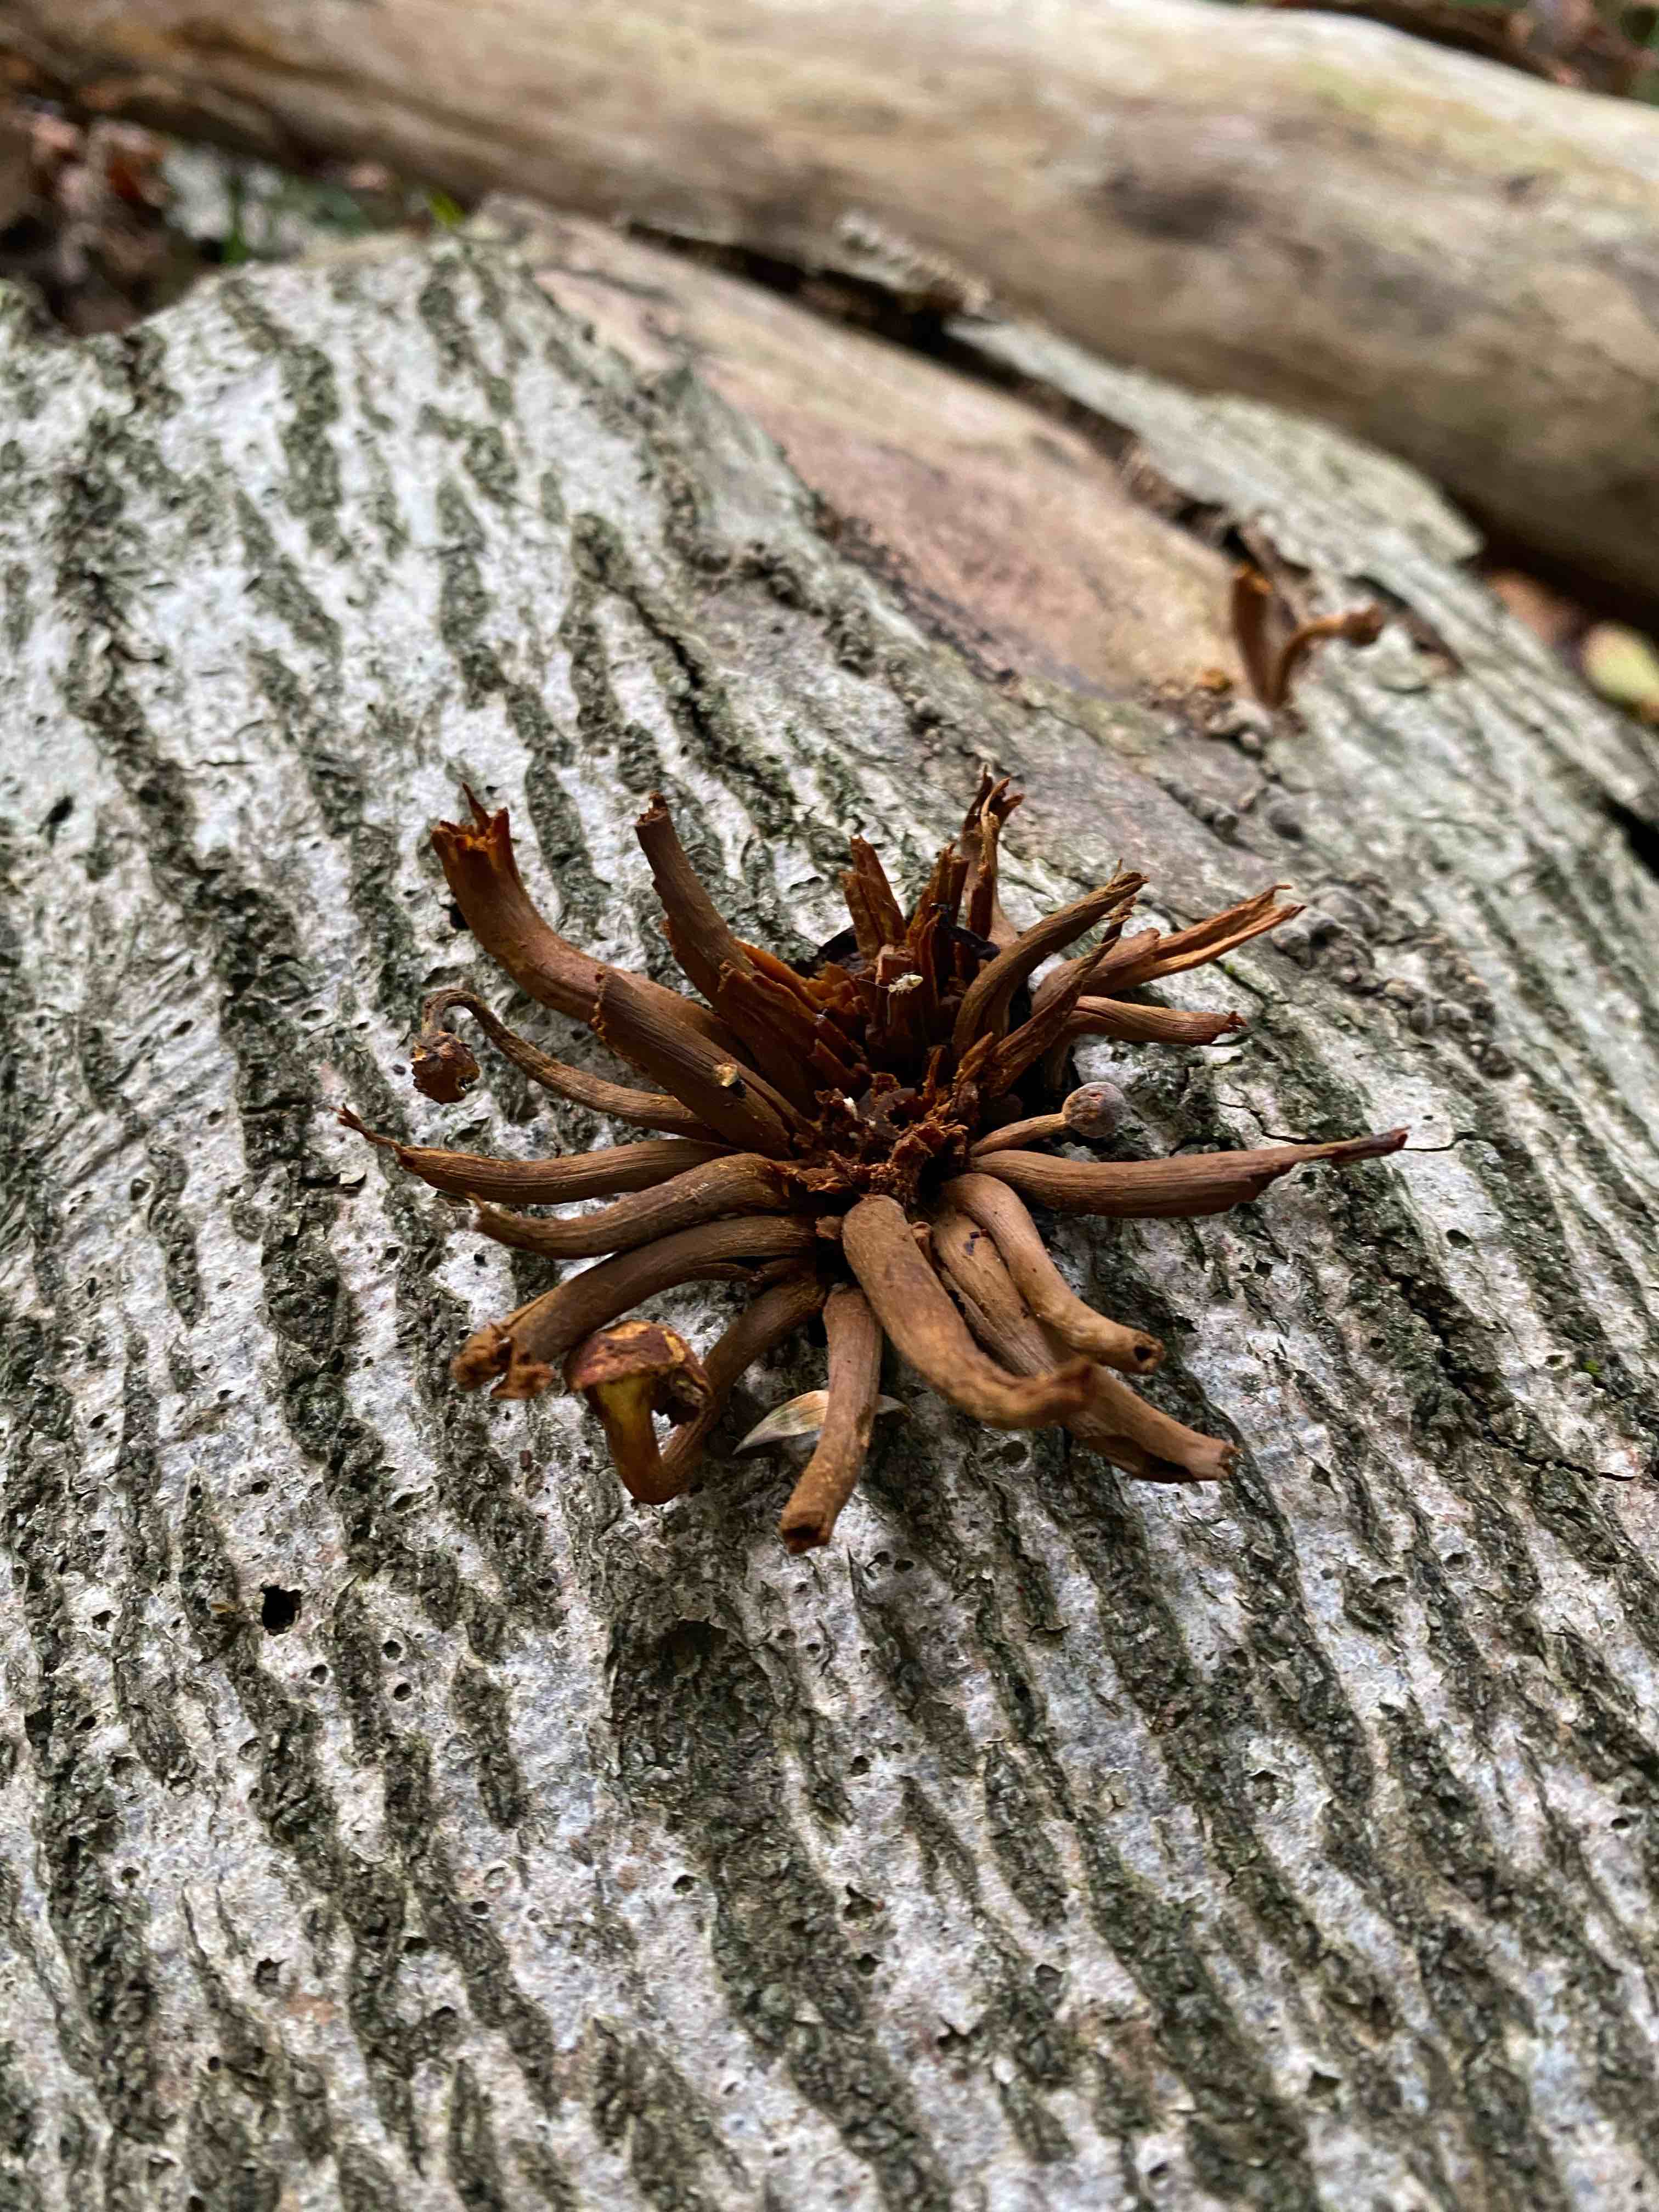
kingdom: Fungi
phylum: Basidiomycota
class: Agaricomycetes
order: Agaricales
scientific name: Agaricales
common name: champignonordenen
